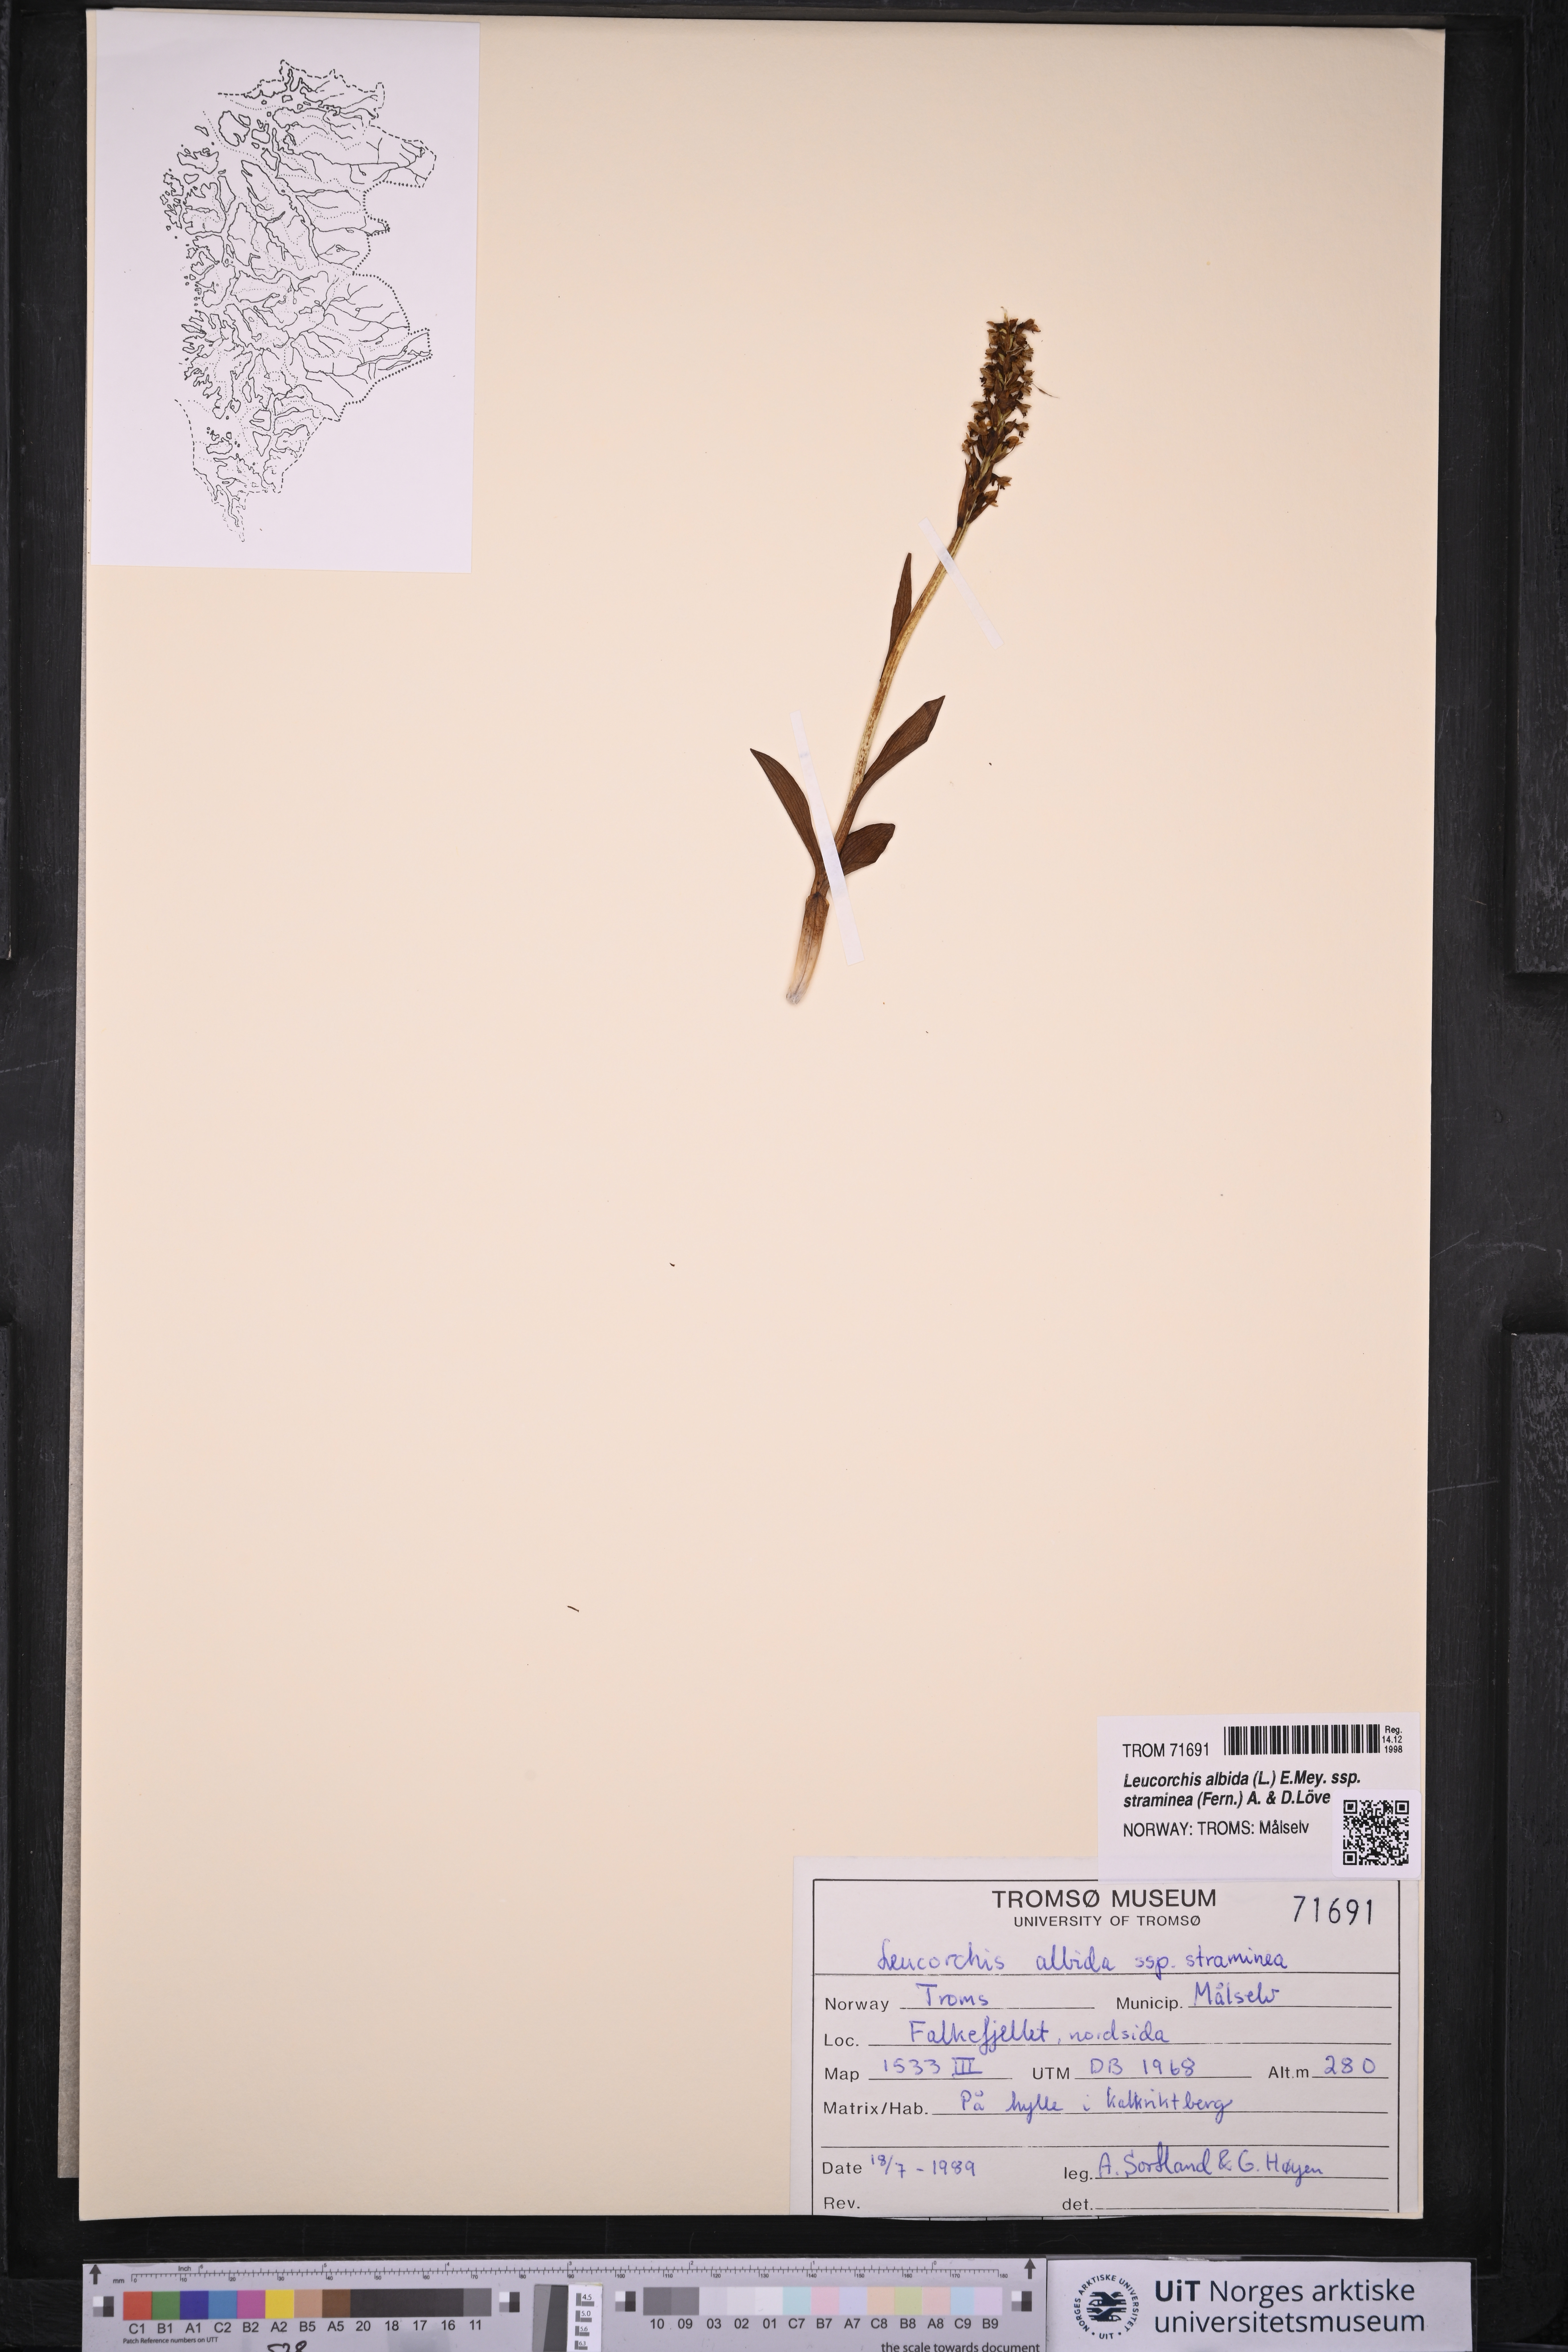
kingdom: Plantae
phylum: Tracheophyta
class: Liliopsida
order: Asparagales
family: Orchidaceae
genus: Pseudorchis
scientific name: Pseudorchis straminea
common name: Vanilla-scented bog orchid
